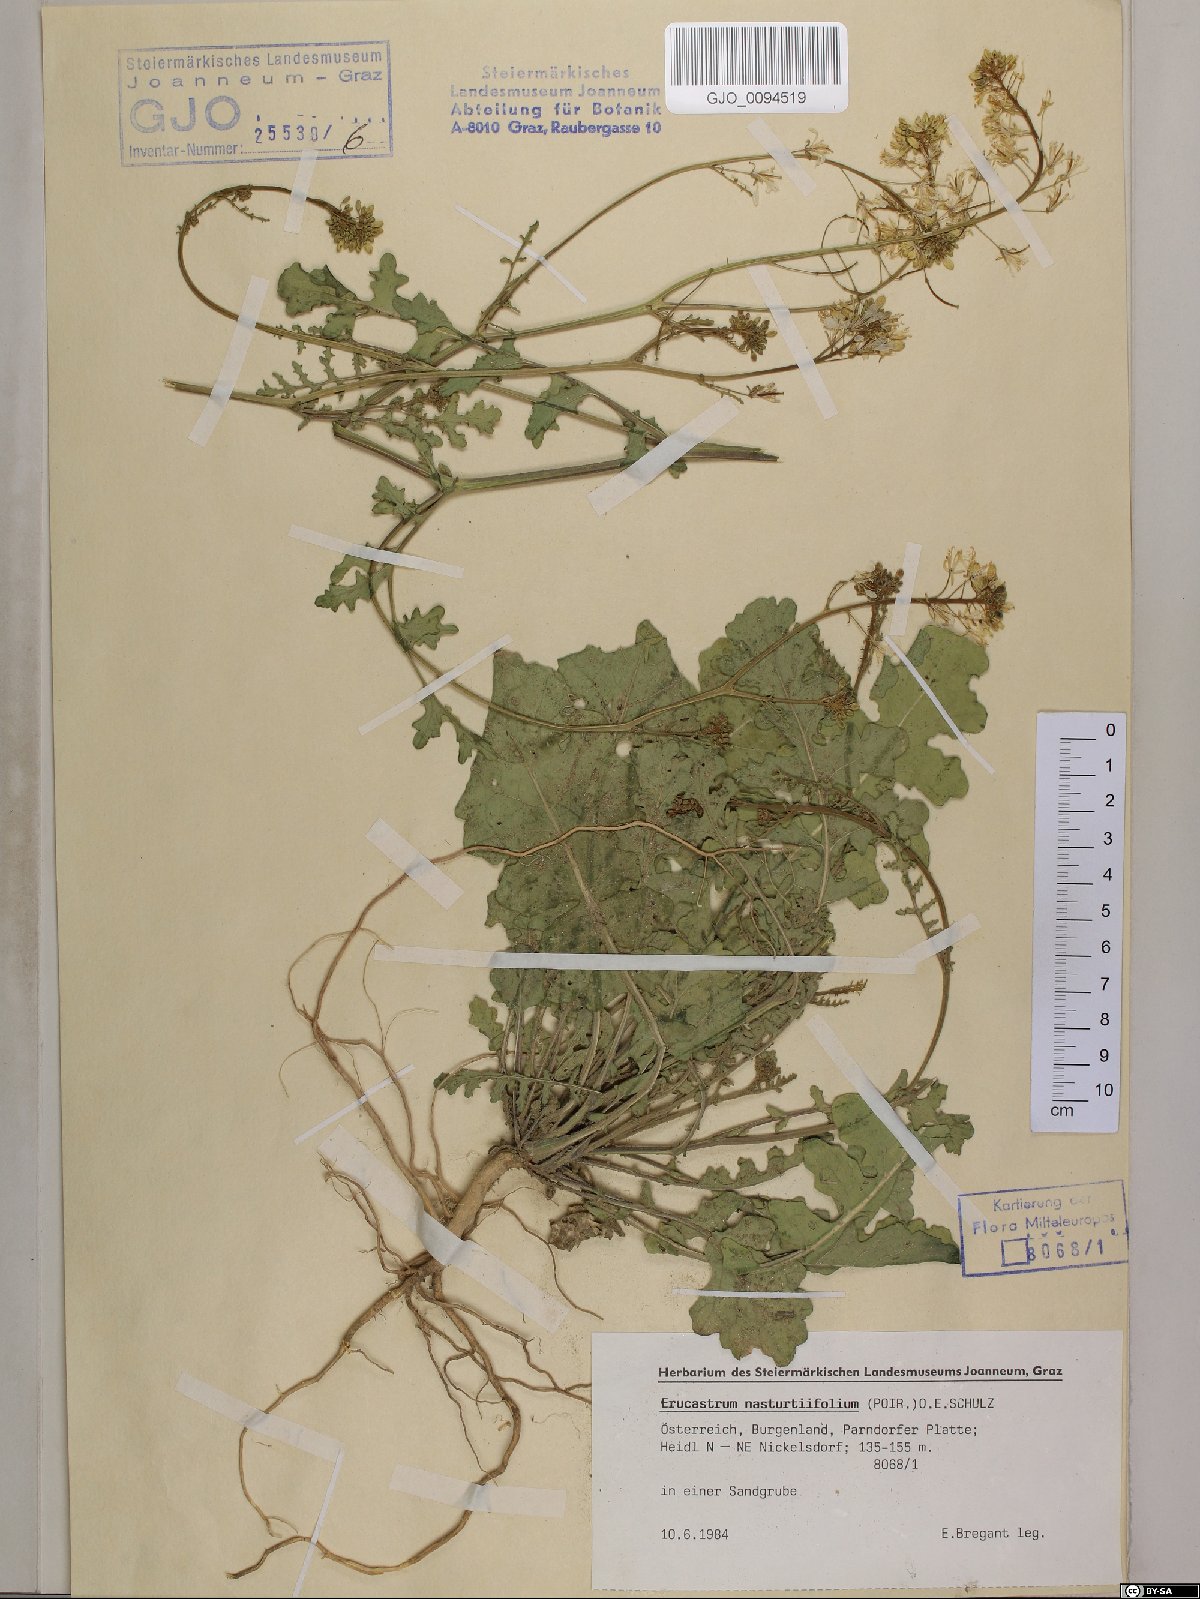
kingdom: Plantae
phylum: Tracheophyta
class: Magnoliopsida
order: Brassicales
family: Brassicaceae
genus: Erucastrum
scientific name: Erucastrum nasturtiifolium
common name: Watercress-leaf rocket
